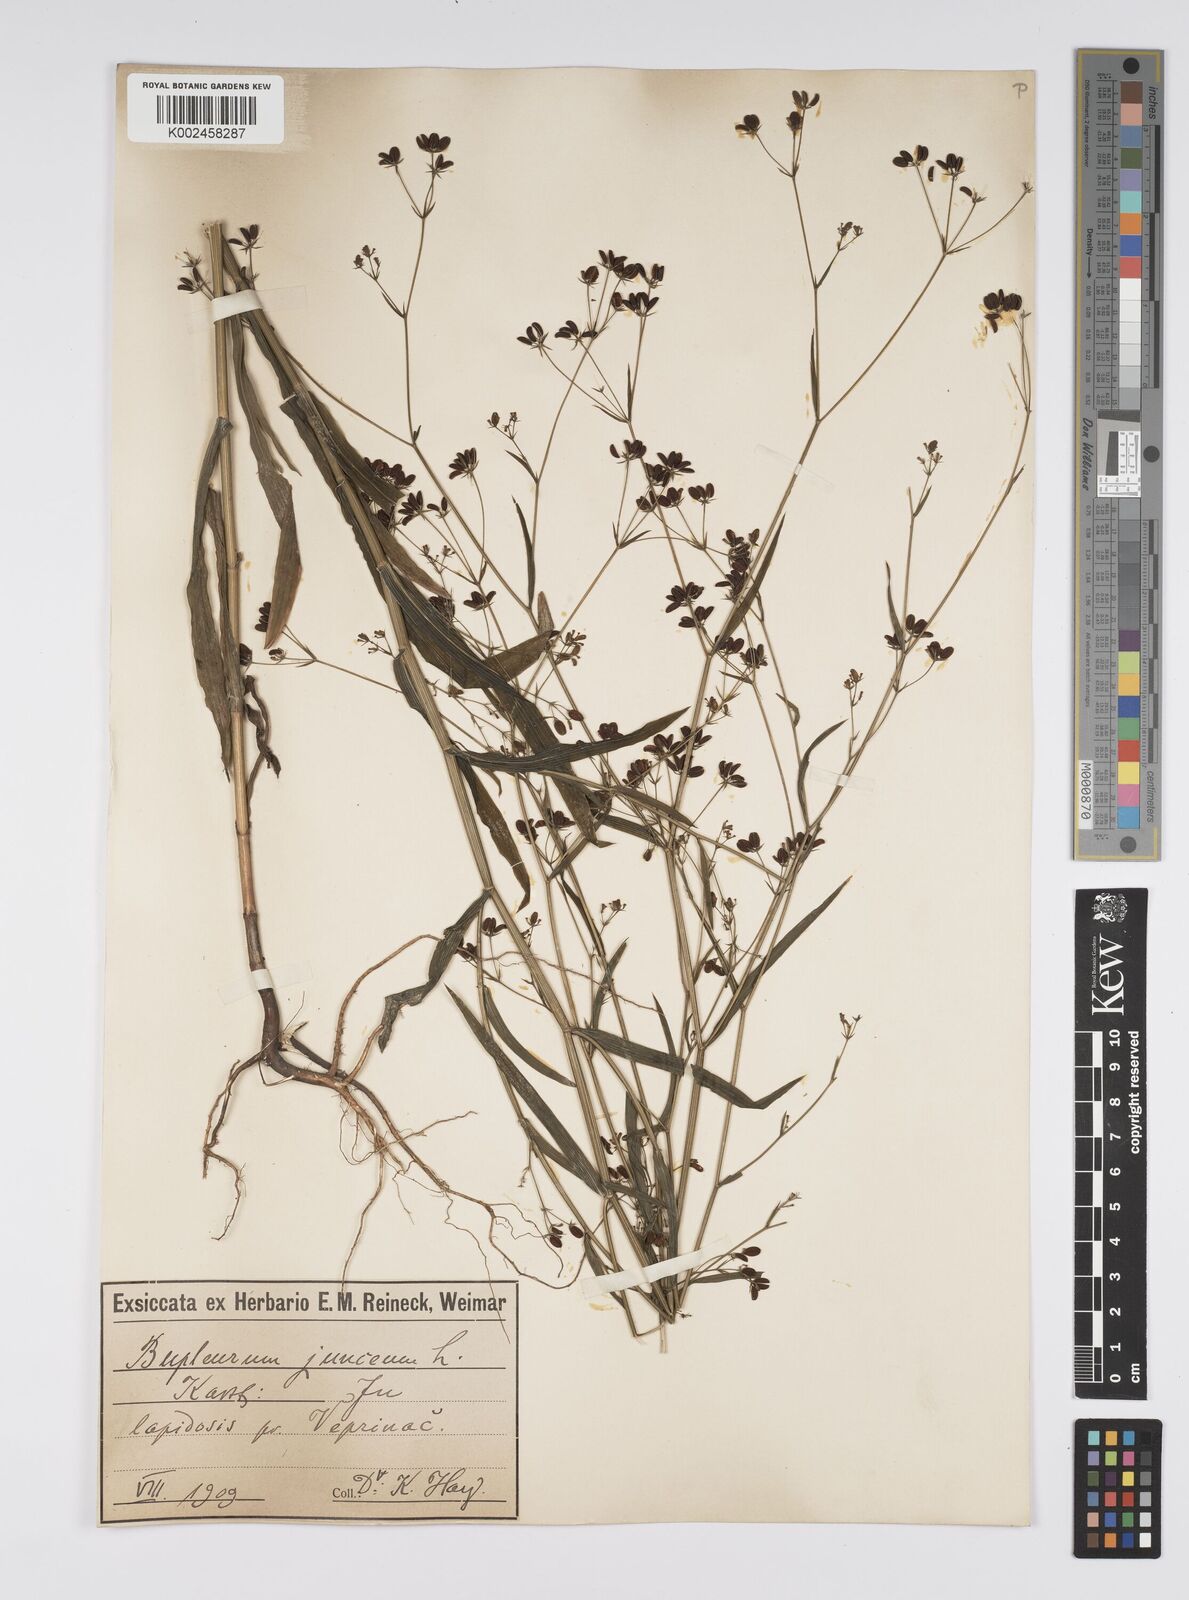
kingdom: Plantae
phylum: Tracheophyta
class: Magnoliopsida
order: Apiales
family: Apiaceae
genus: Bupleurum
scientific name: Bupleurum praealtum
